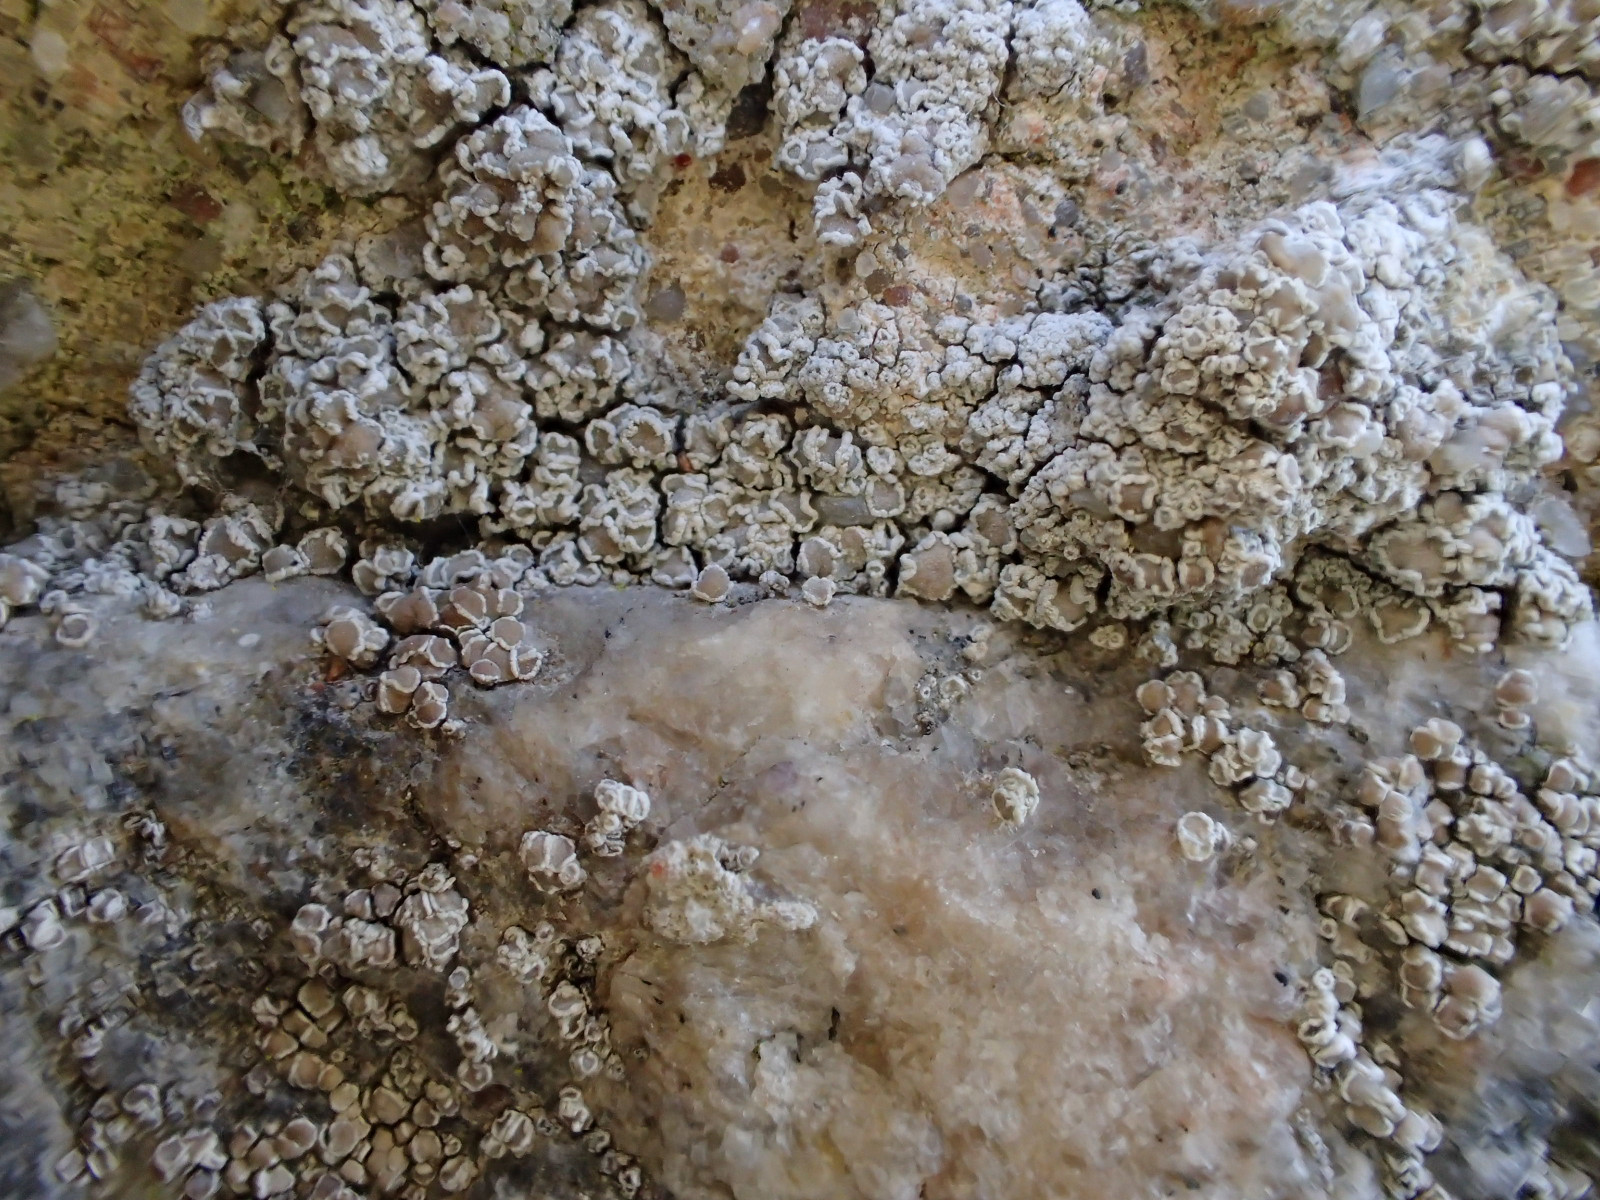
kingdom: Fungi
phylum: Ascomycota
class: Lecanoromycetes
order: Lecanorales
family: Lecanoraceae
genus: Polyozosia
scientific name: Polyozosia albescens
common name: cement-kantskivelav
